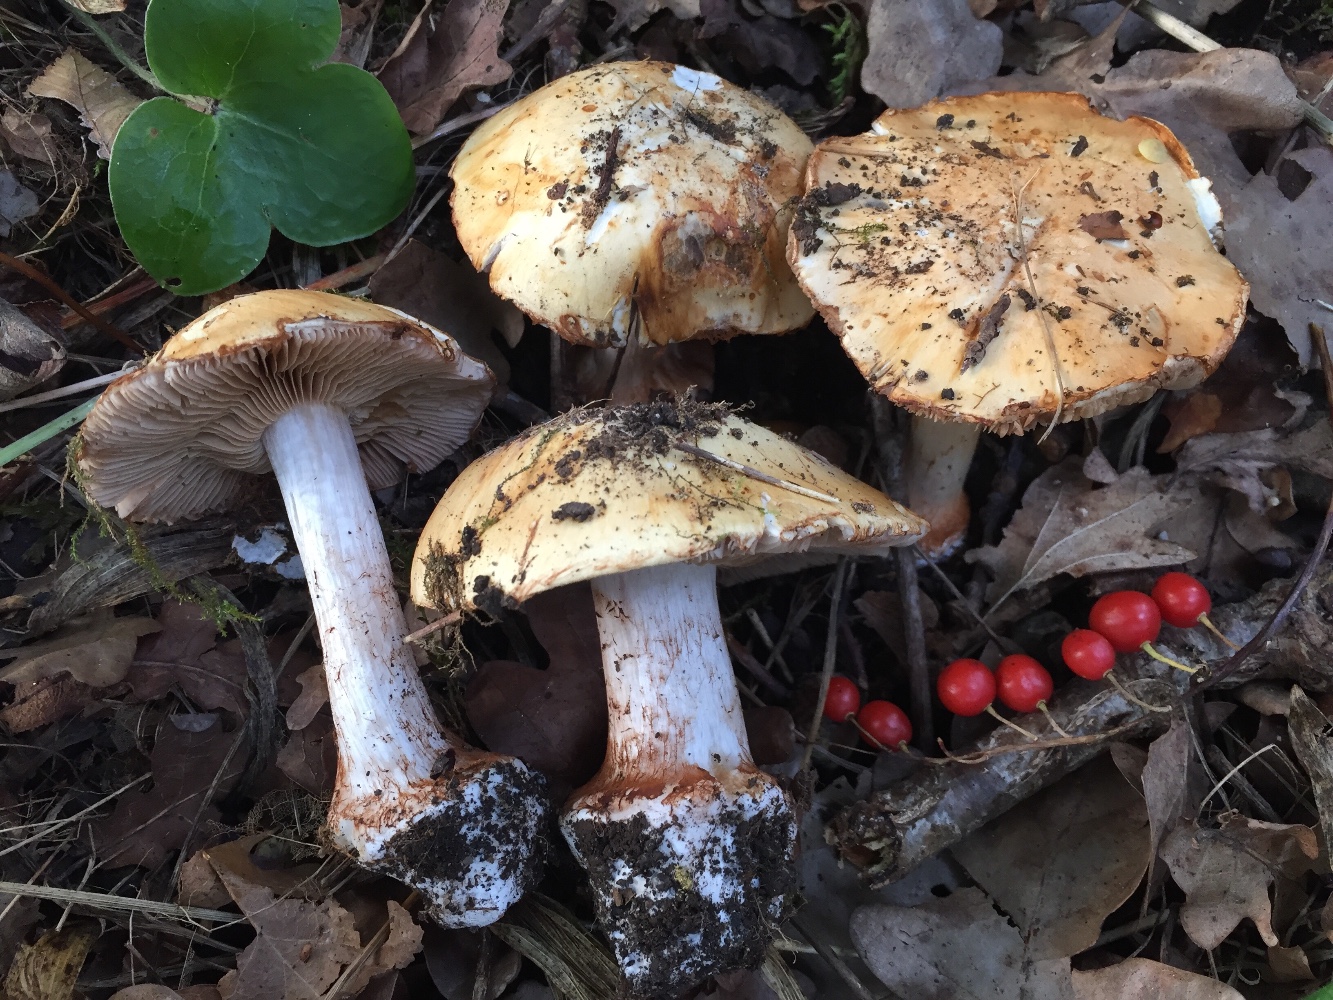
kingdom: Fungi
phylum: Basidiomycota
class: Agaricomycetes
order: Agaricales
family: Cortinariaceae
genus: Calonarius
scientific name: Calonarius rapaceotomentosus
